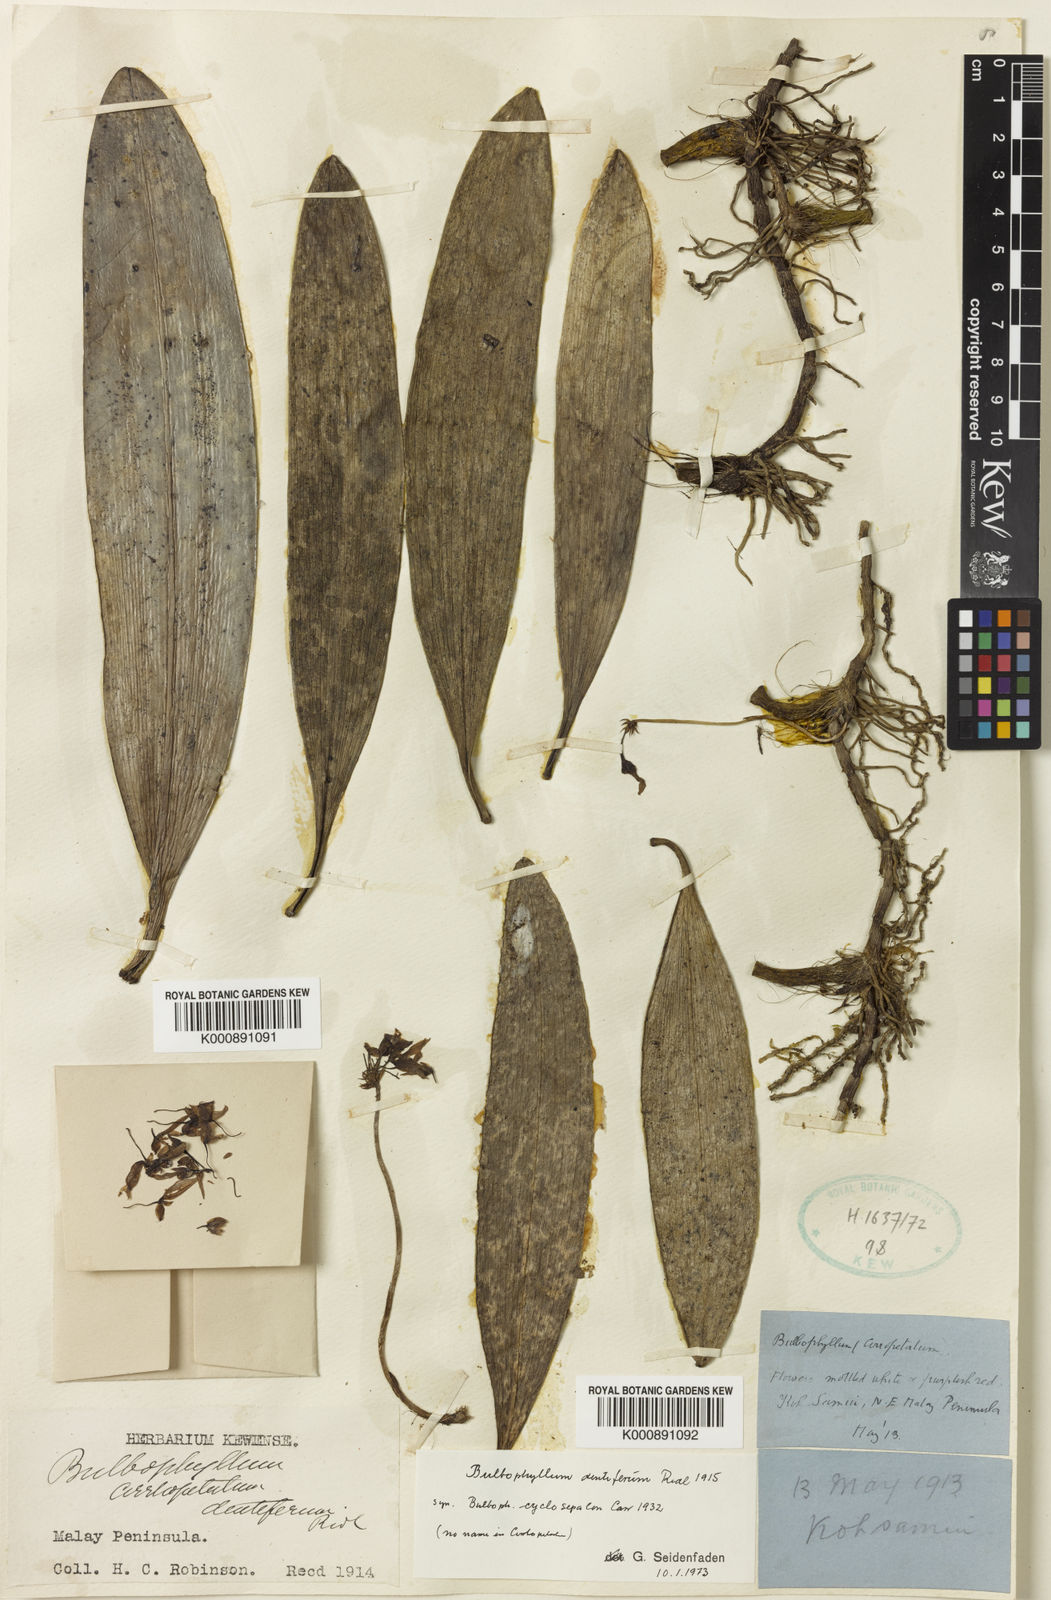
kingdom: Plantae
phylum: Tracheophyta
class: Liliopsida
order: Asparagales
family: Orchidaceae
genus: Bulbophyllum
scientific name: Bulbophyllum
